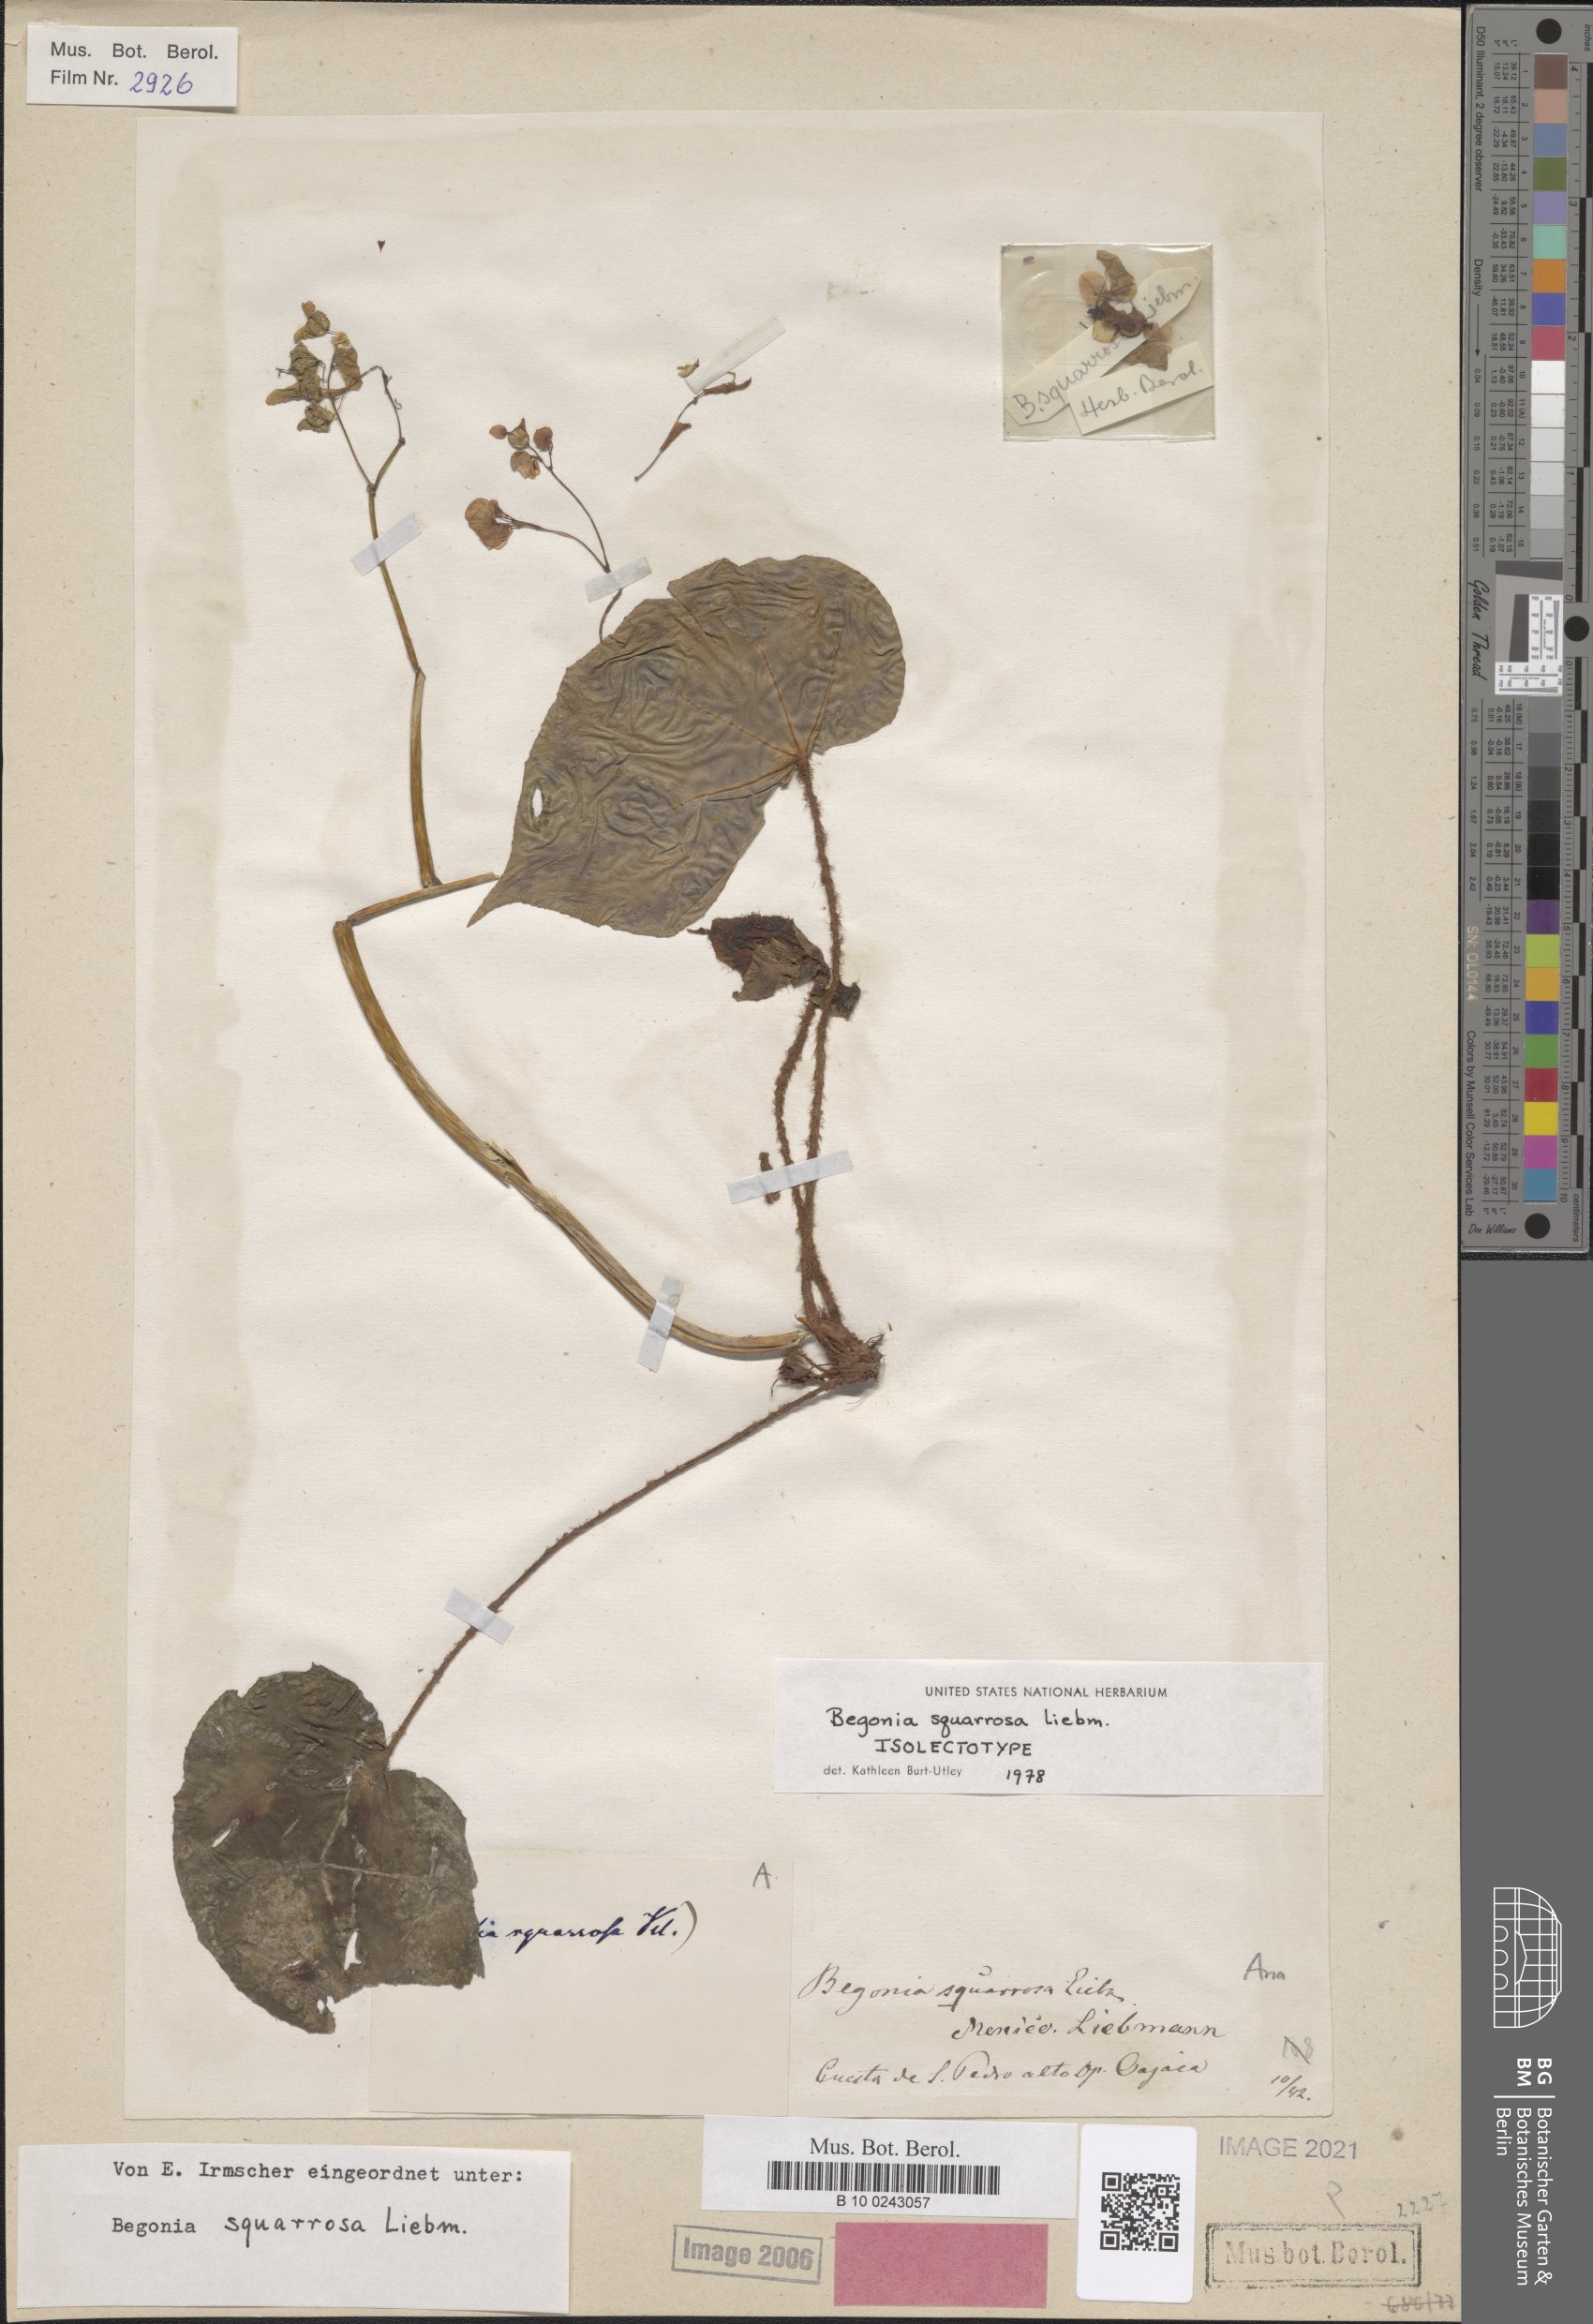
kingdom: Plantae
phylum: Tracheophyta
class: Magnoliopsida
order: Cucurbitales
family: Begoniaceae
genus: Begonia
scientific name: Begonia squarrosa
